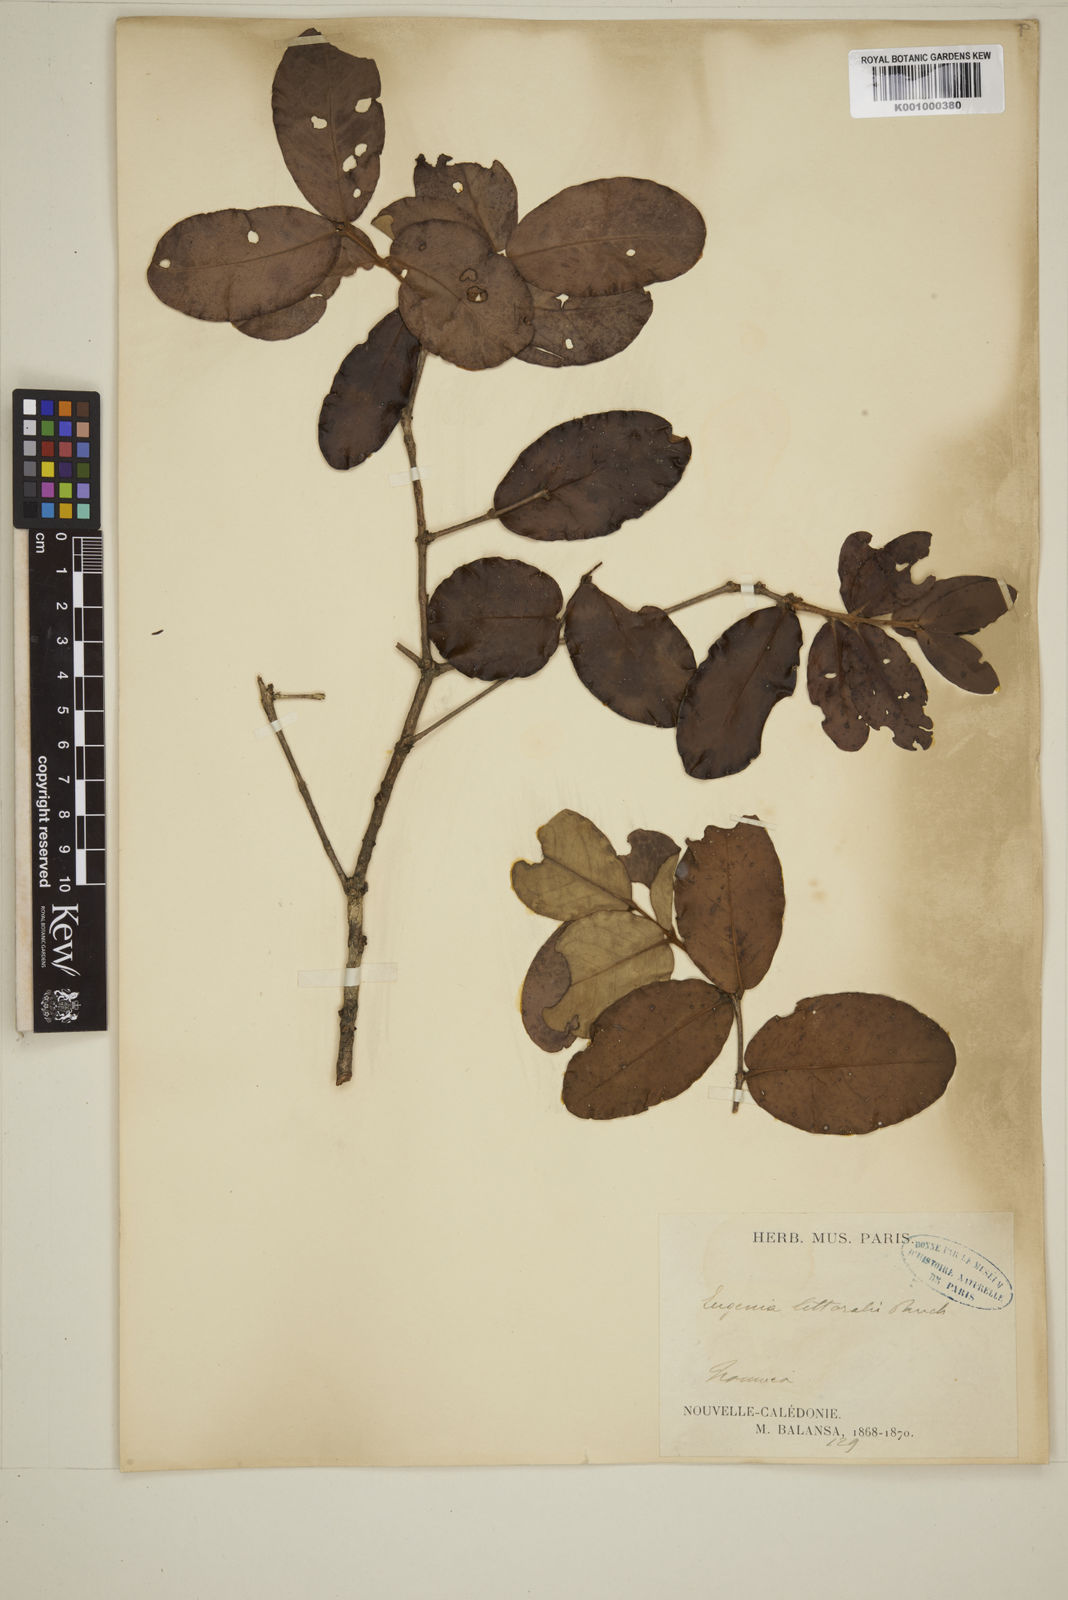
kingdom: Plantae
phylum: Tracheophyta
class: Magnoliopsida
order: Myrtales
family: Myrtaceae
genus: Eugenia
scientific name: Eugenia littoralis
